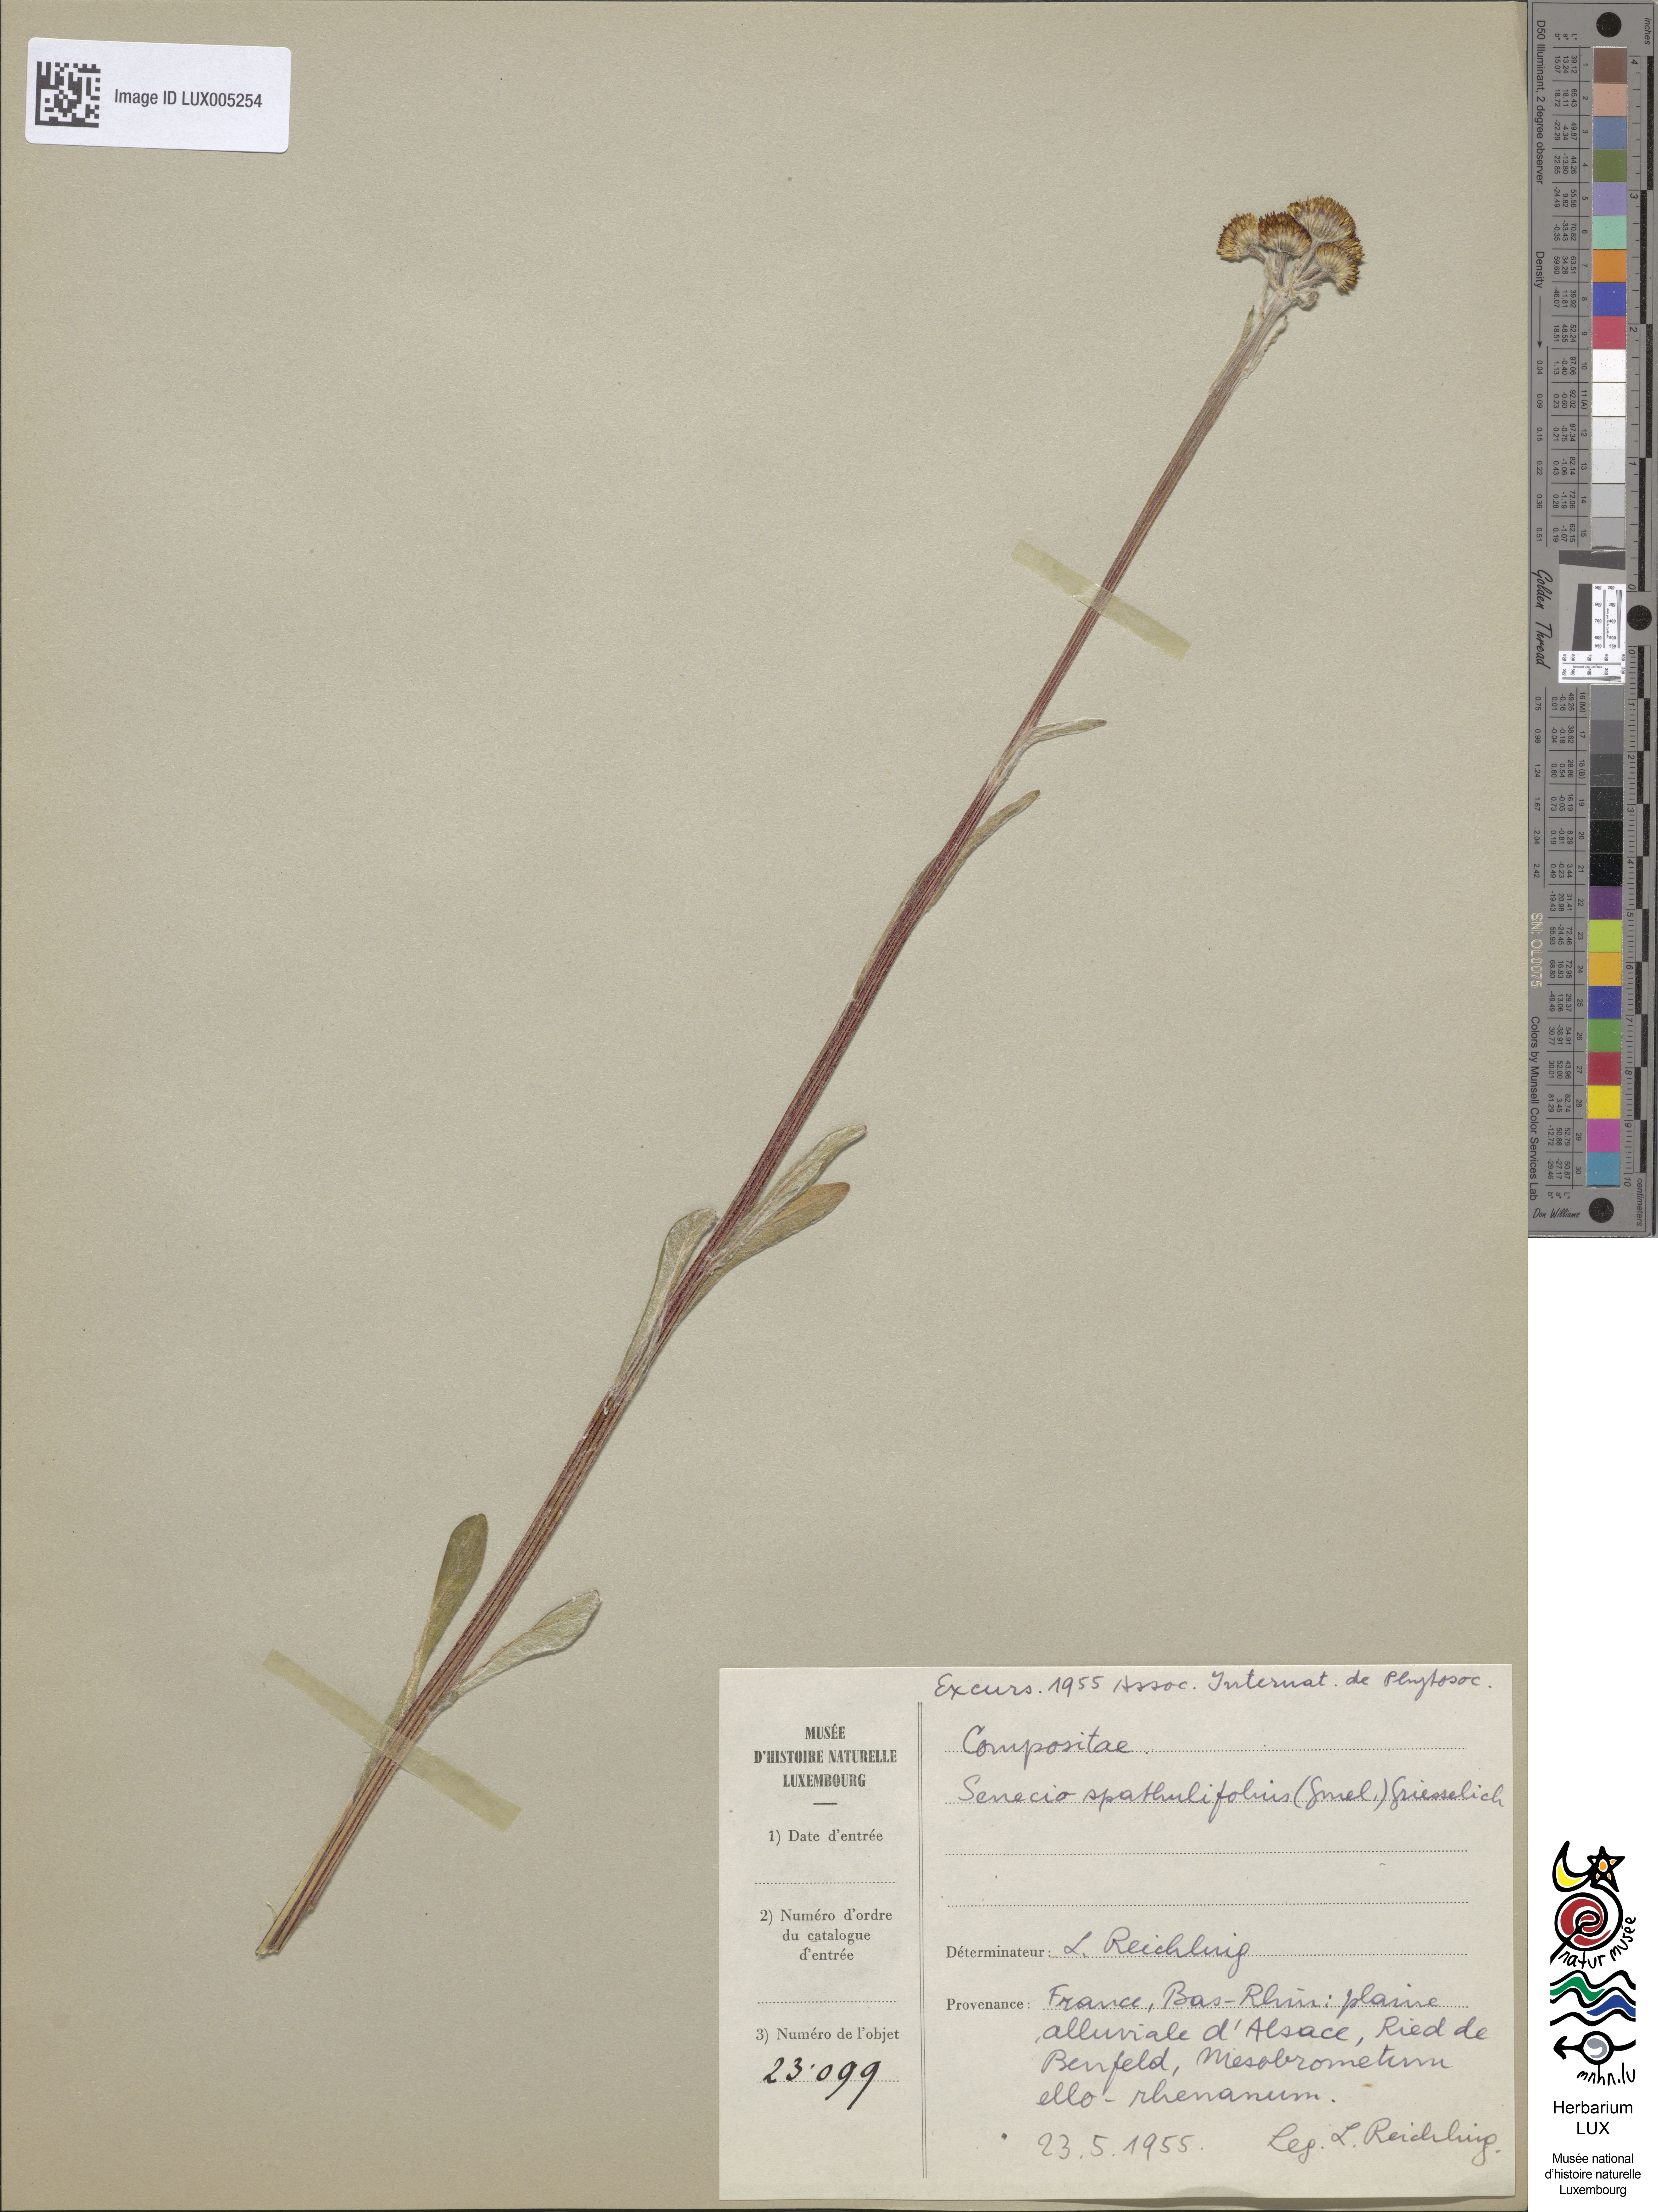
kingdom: Plantae
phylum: Tracheophyta
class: Magnoliopsida
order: Asterales
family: Asteraceae
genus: Tephroseris
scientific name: Tephroseris helenitis
